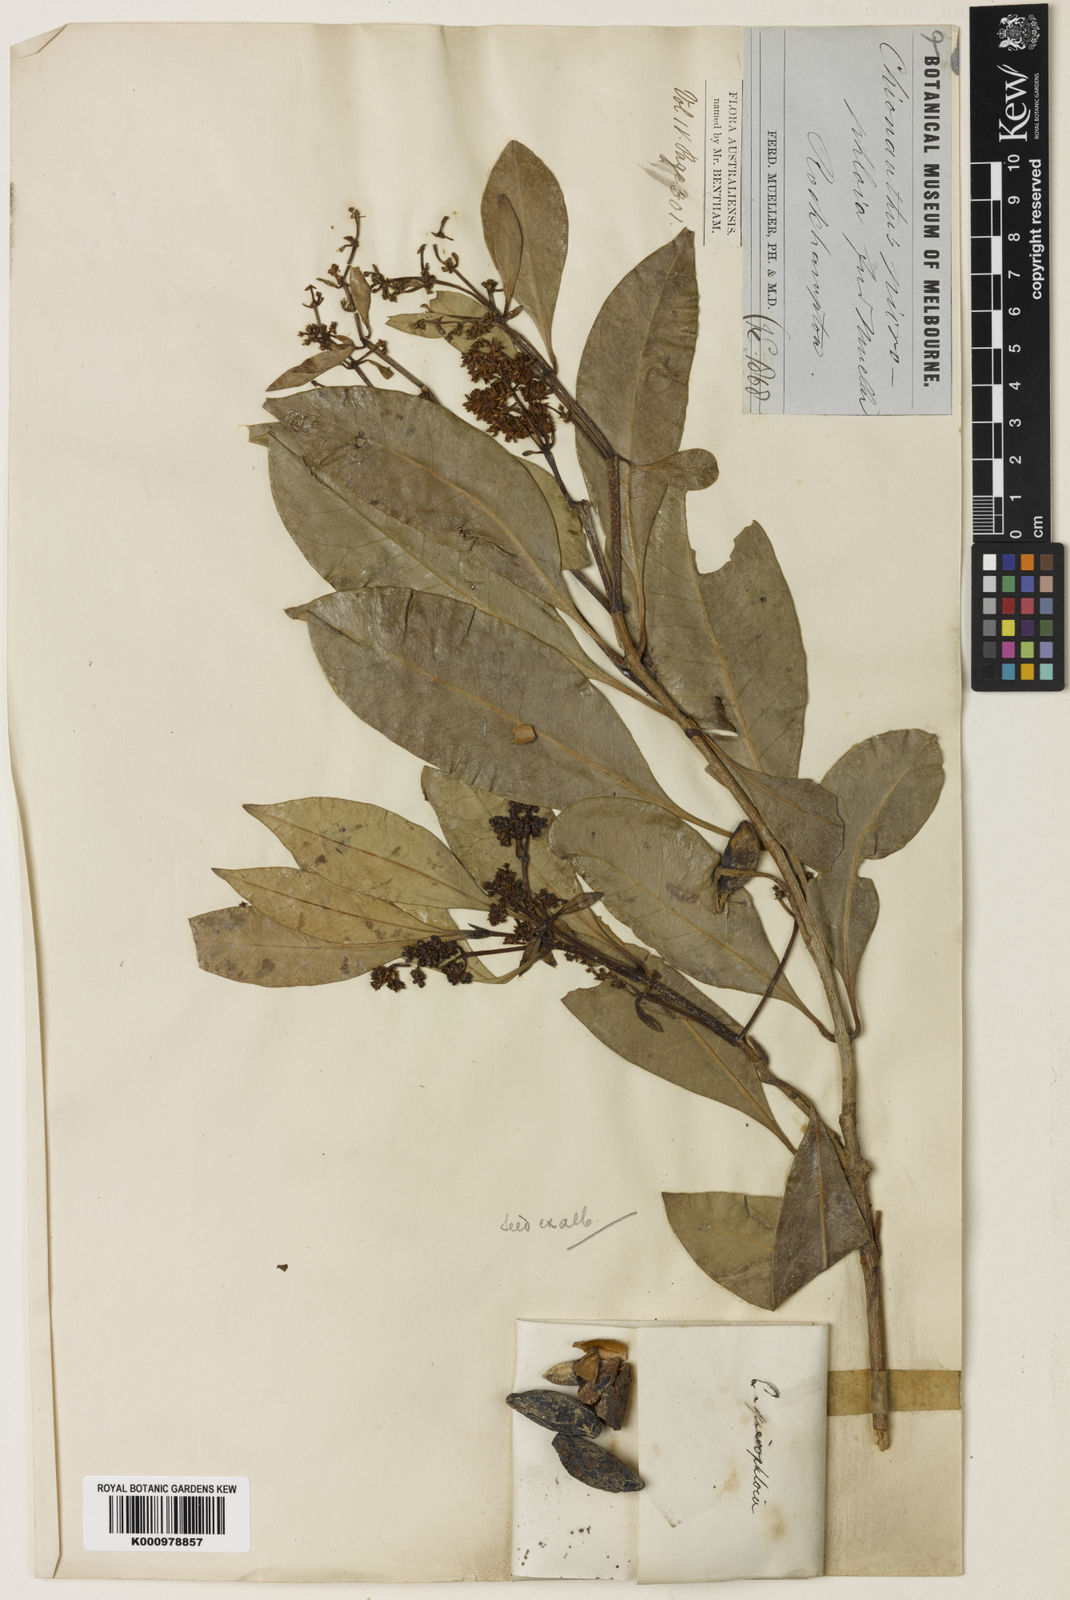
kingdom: Plantae
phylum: Tracheophyta
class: Magnoliopsida
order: Lamiales
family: Oleaceae
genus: Chionanthus
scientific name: Chionanthus ramiflorus
